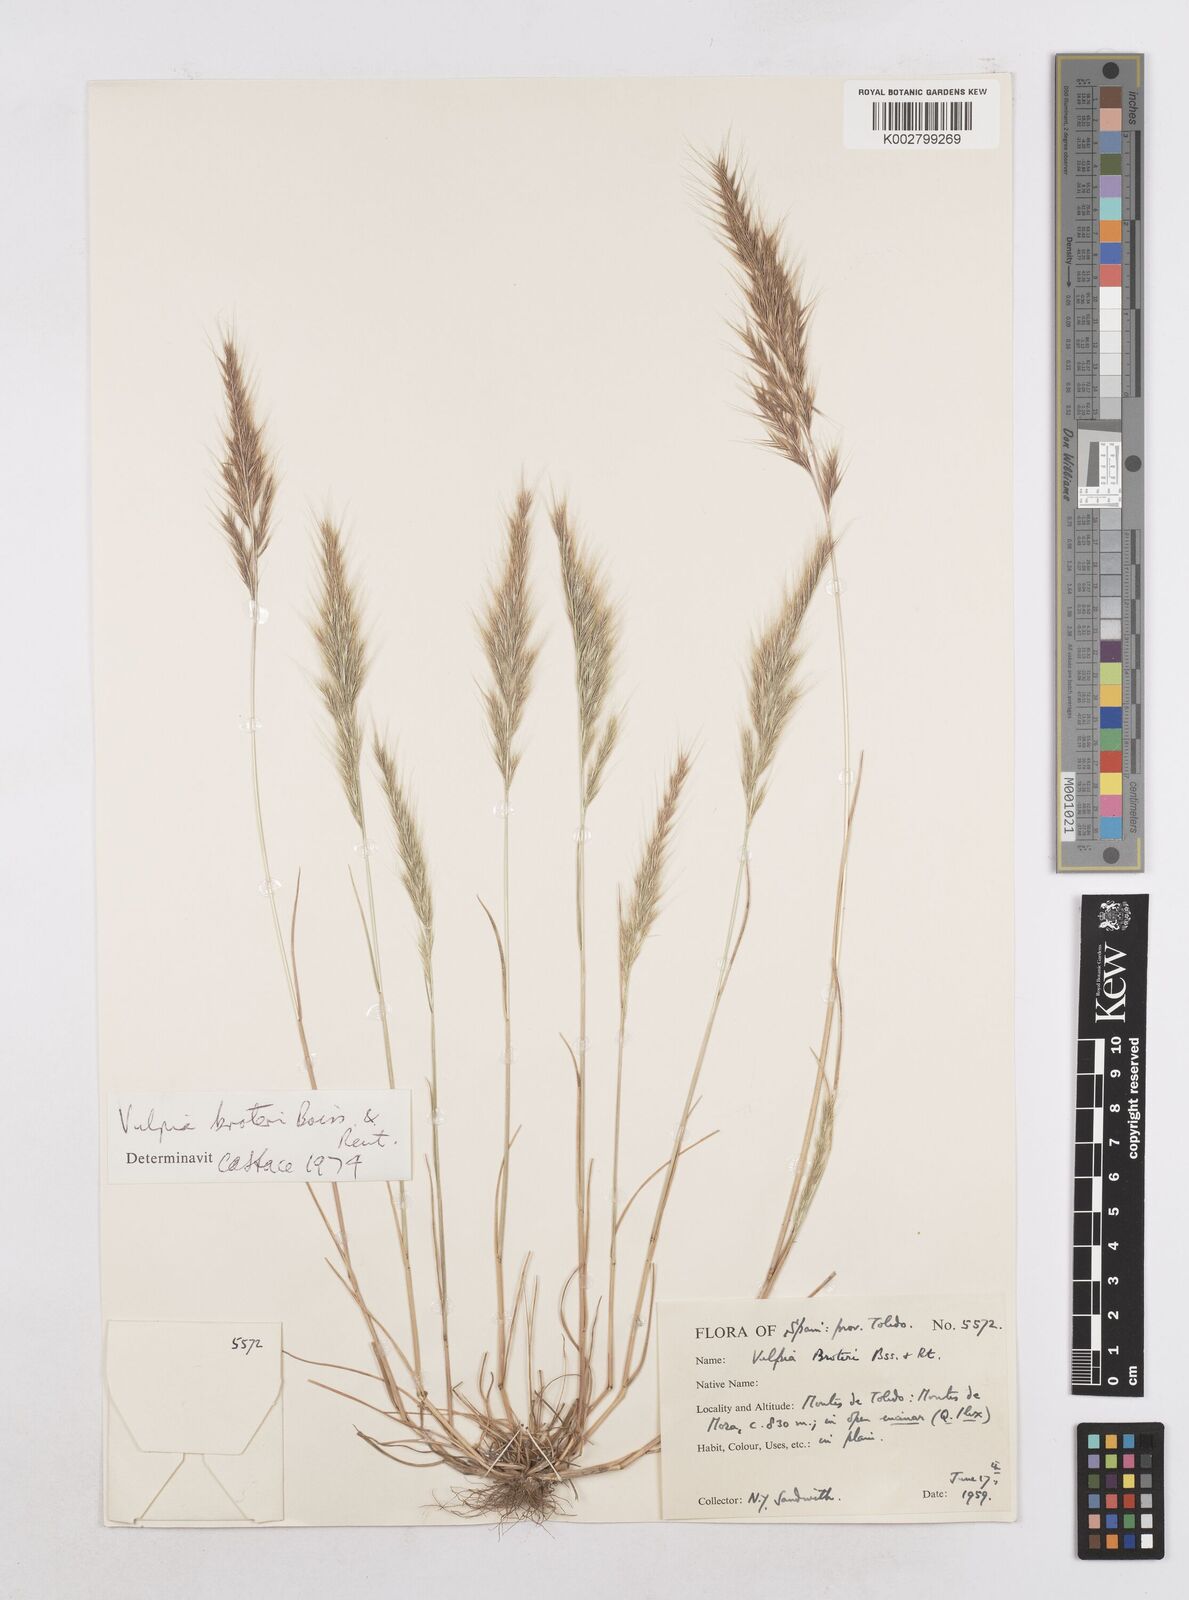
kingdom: Plantae
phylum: Tracheophyta
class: Liliopsida
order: Poales
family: Poaceae
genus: Festuca
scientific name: Festuca muralis
